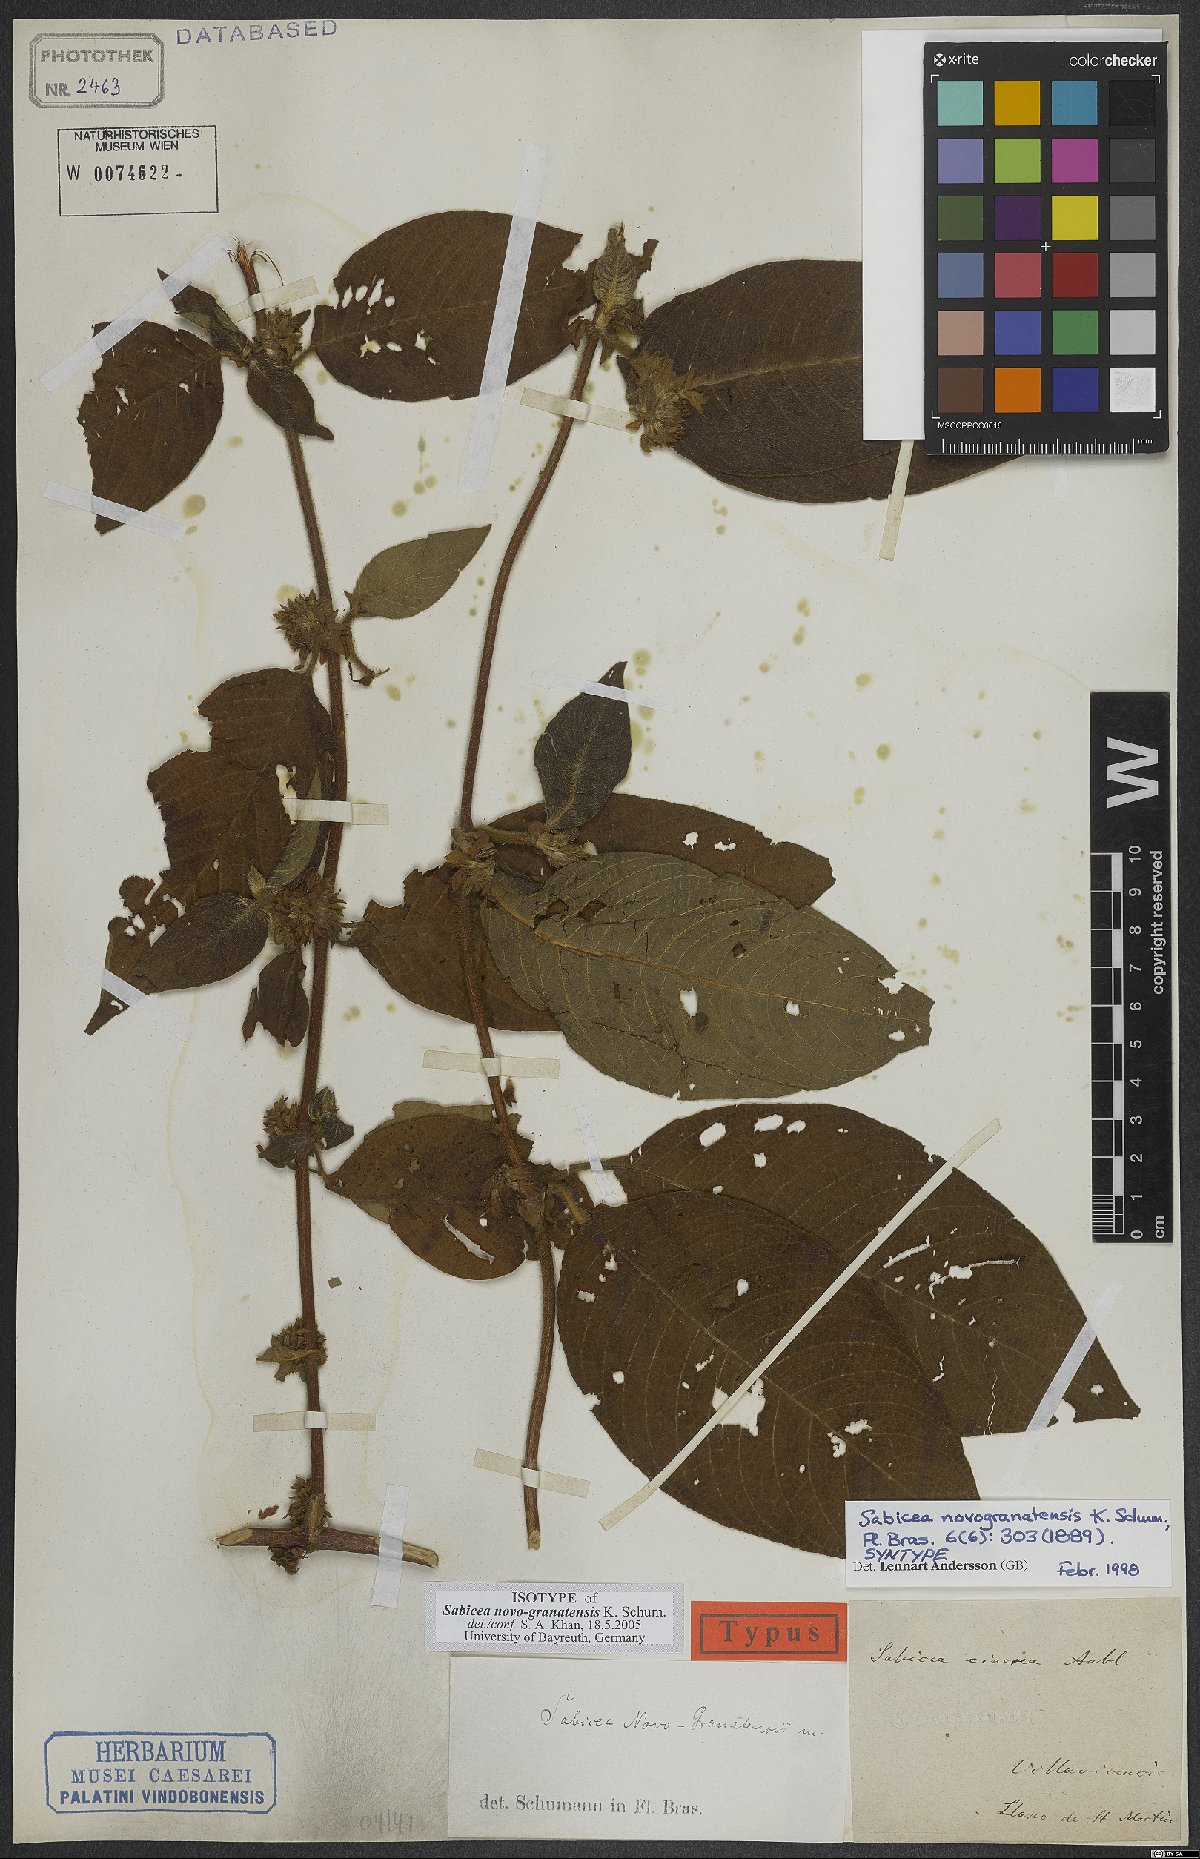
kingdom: Plantae
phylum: Tracheophyta
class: Magnoliopsida
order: Gentianales
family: Rubiaceae
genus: Sabicea
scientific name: Sabicea novogranatensis
